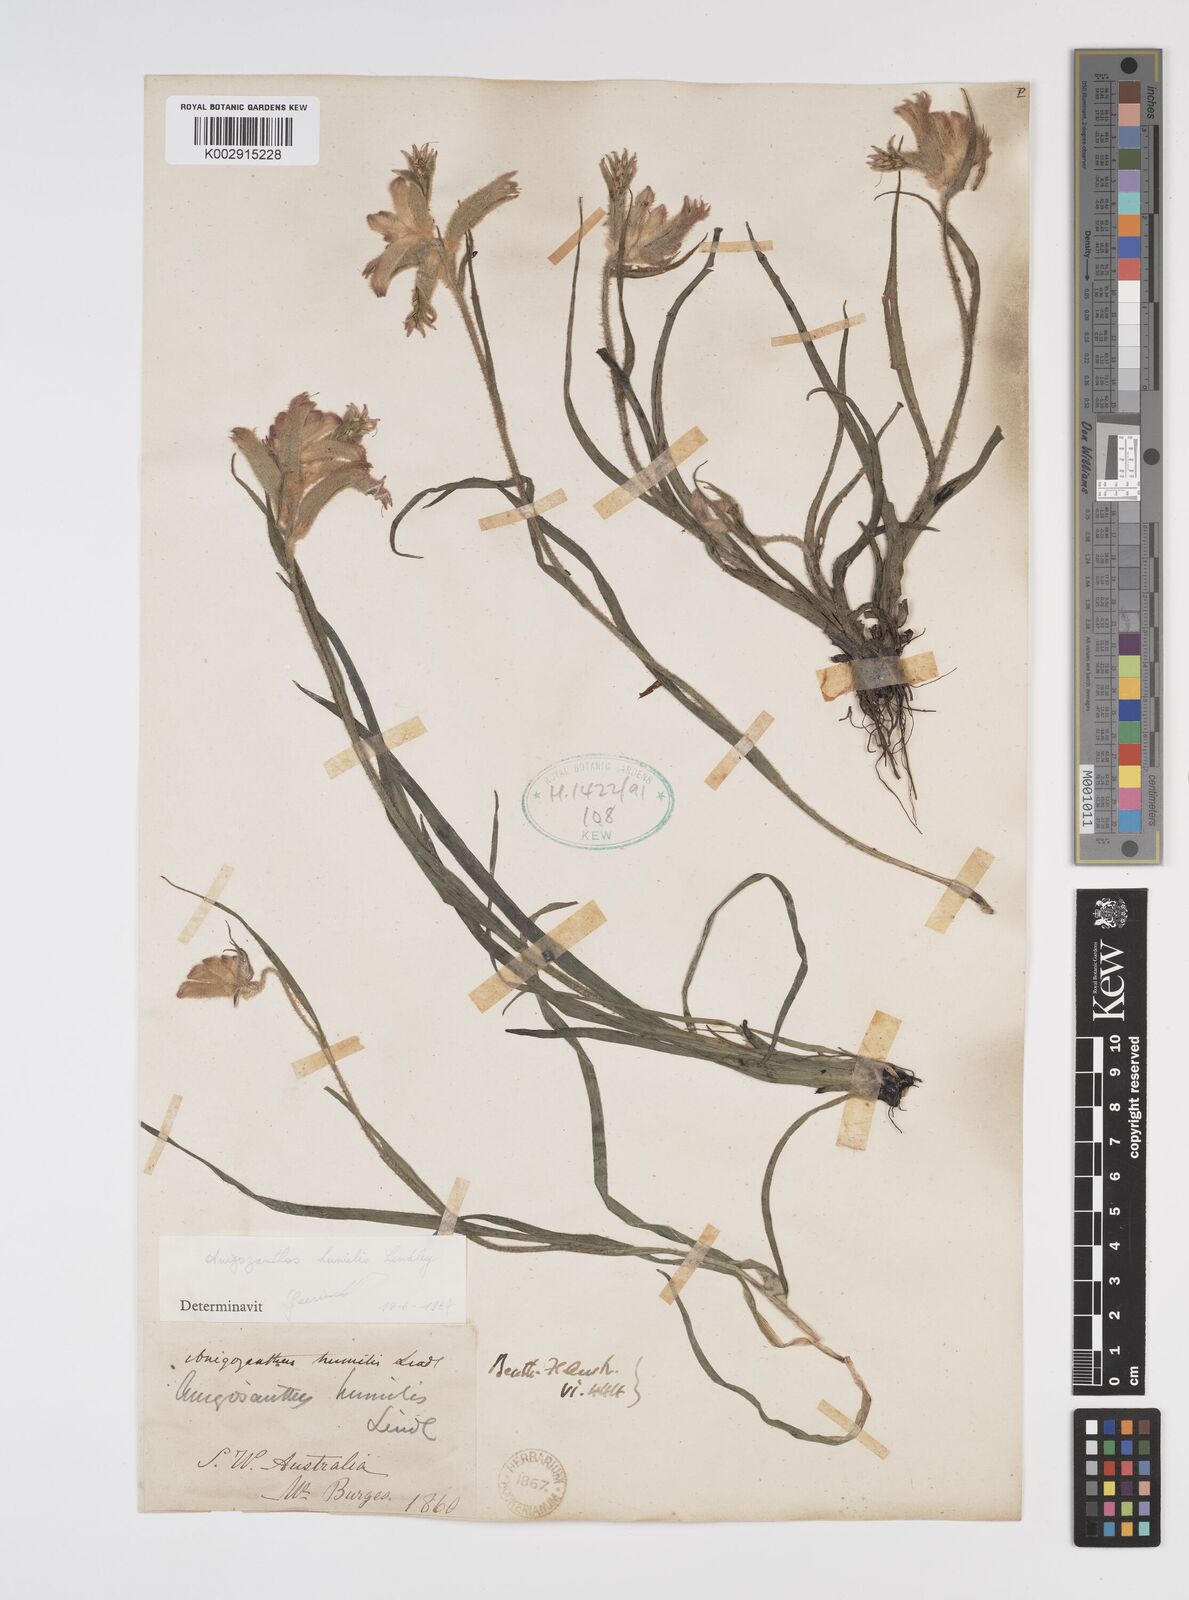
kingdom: Plantae
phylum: Tracheophyta
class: Liliopsida
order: Commelinales
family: Haemodoraceae
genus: Anigozanthos
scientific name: Anigozanthos humilis
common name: Cat's-paw
